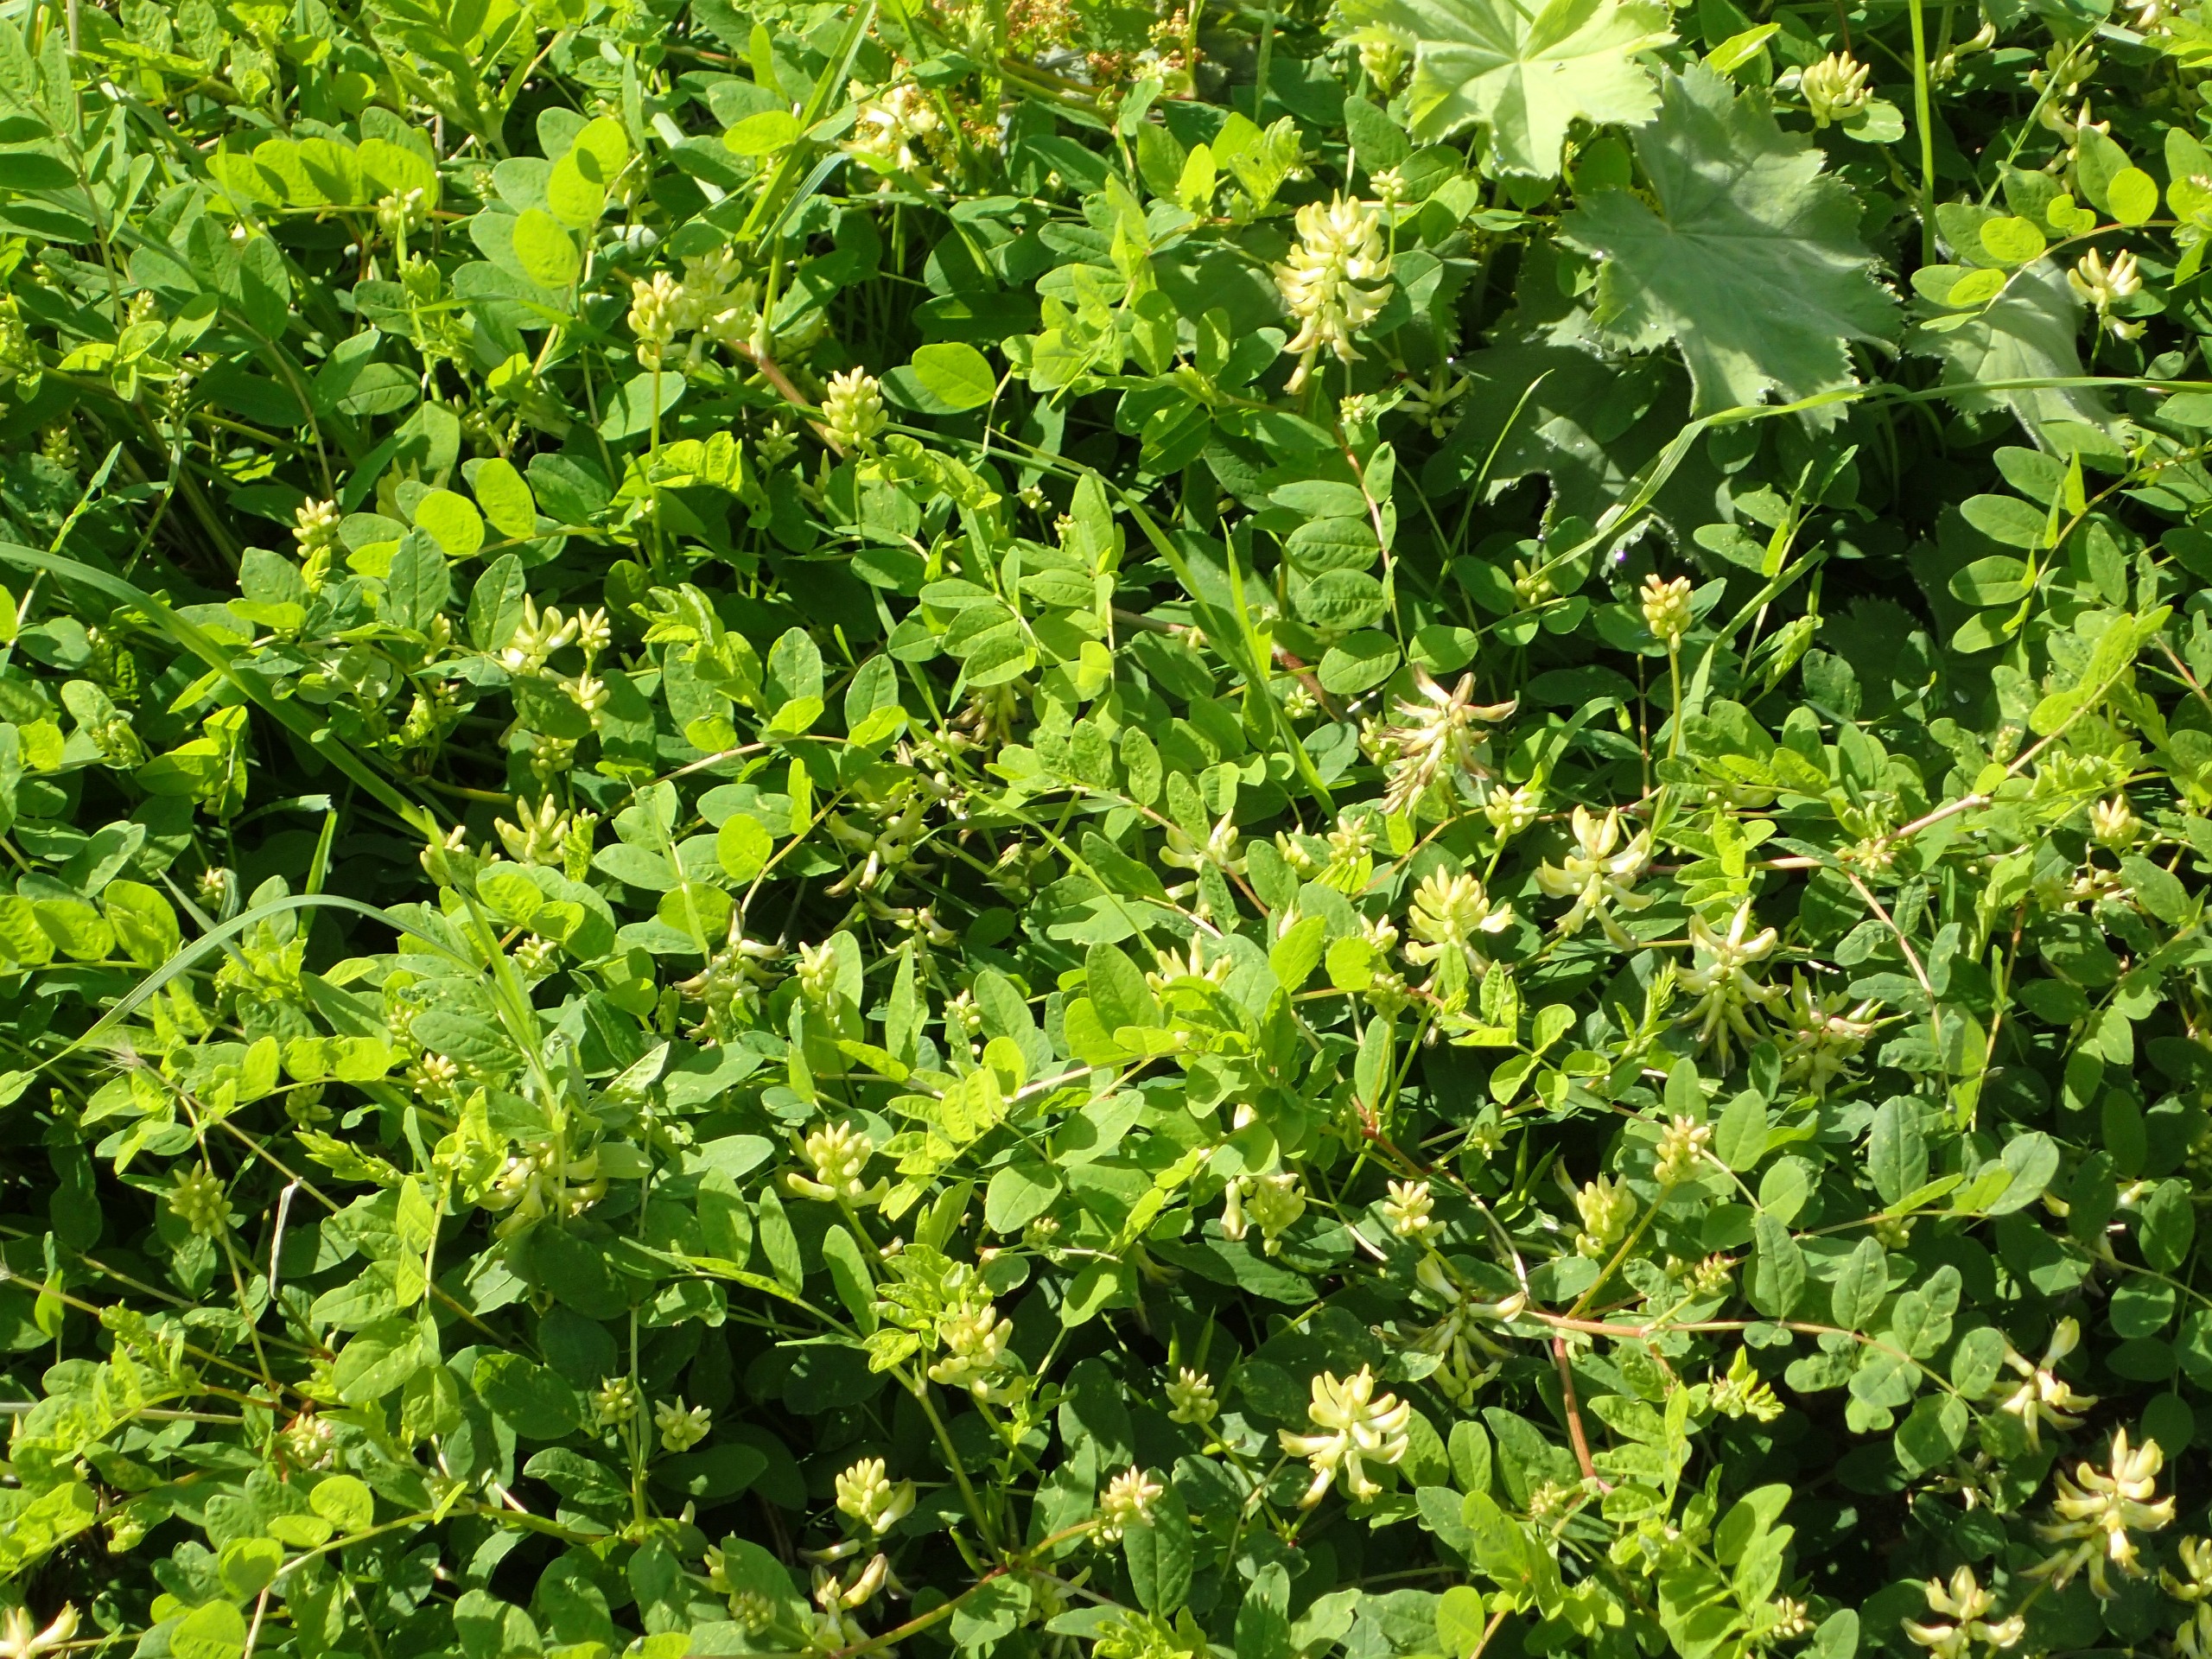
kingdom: Plantae
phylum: Tracheophyta
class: Magnoliopsida
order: Fabales
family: Fabaceae
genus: Astragalus
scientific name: Astragalus glycyphyllos
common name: Sød astragel
